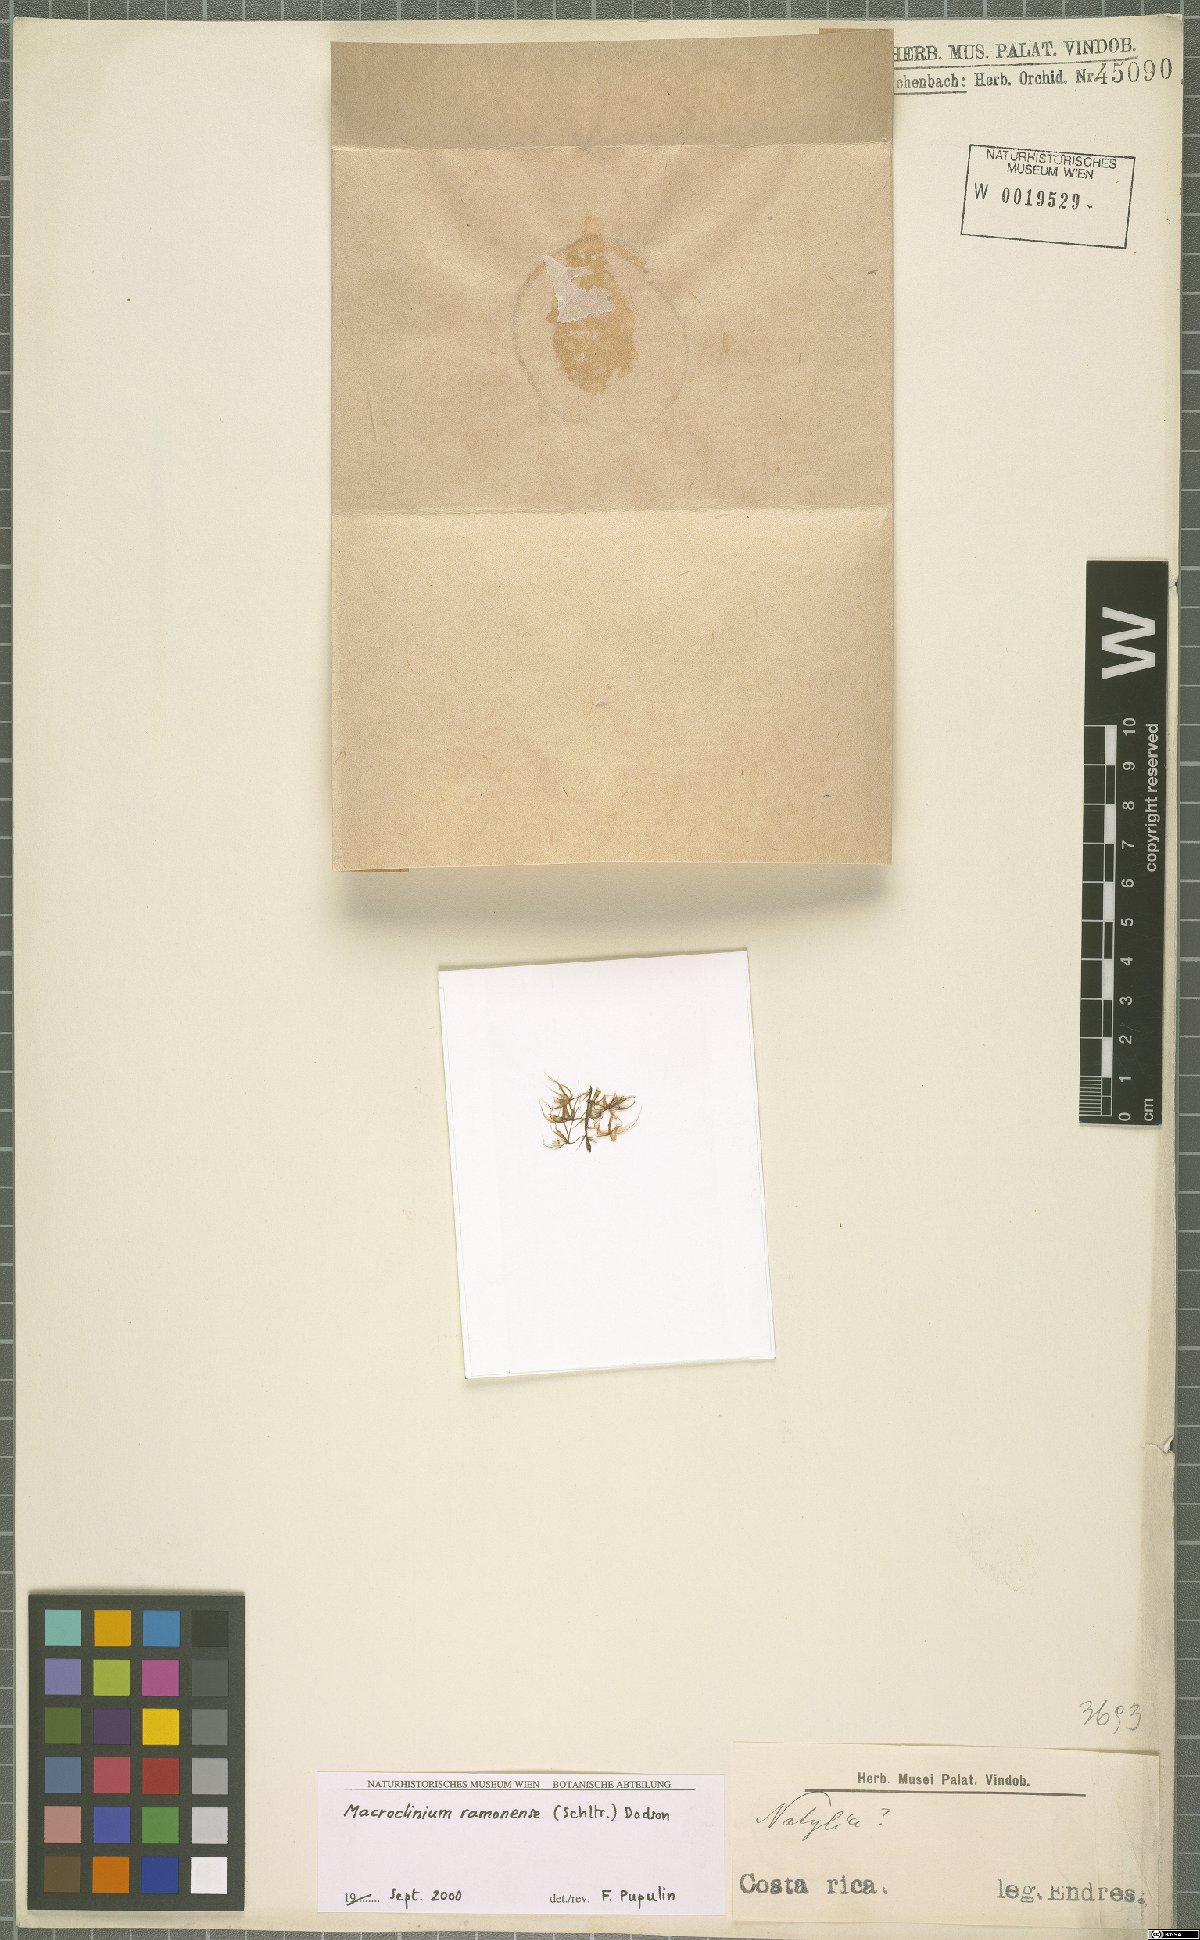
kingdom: Plantae
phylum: Tracheophyta
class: Liliopsida
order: Asparagales
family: Orchidaceae
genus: Macroclinium
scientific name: Macroclinium ramonense
